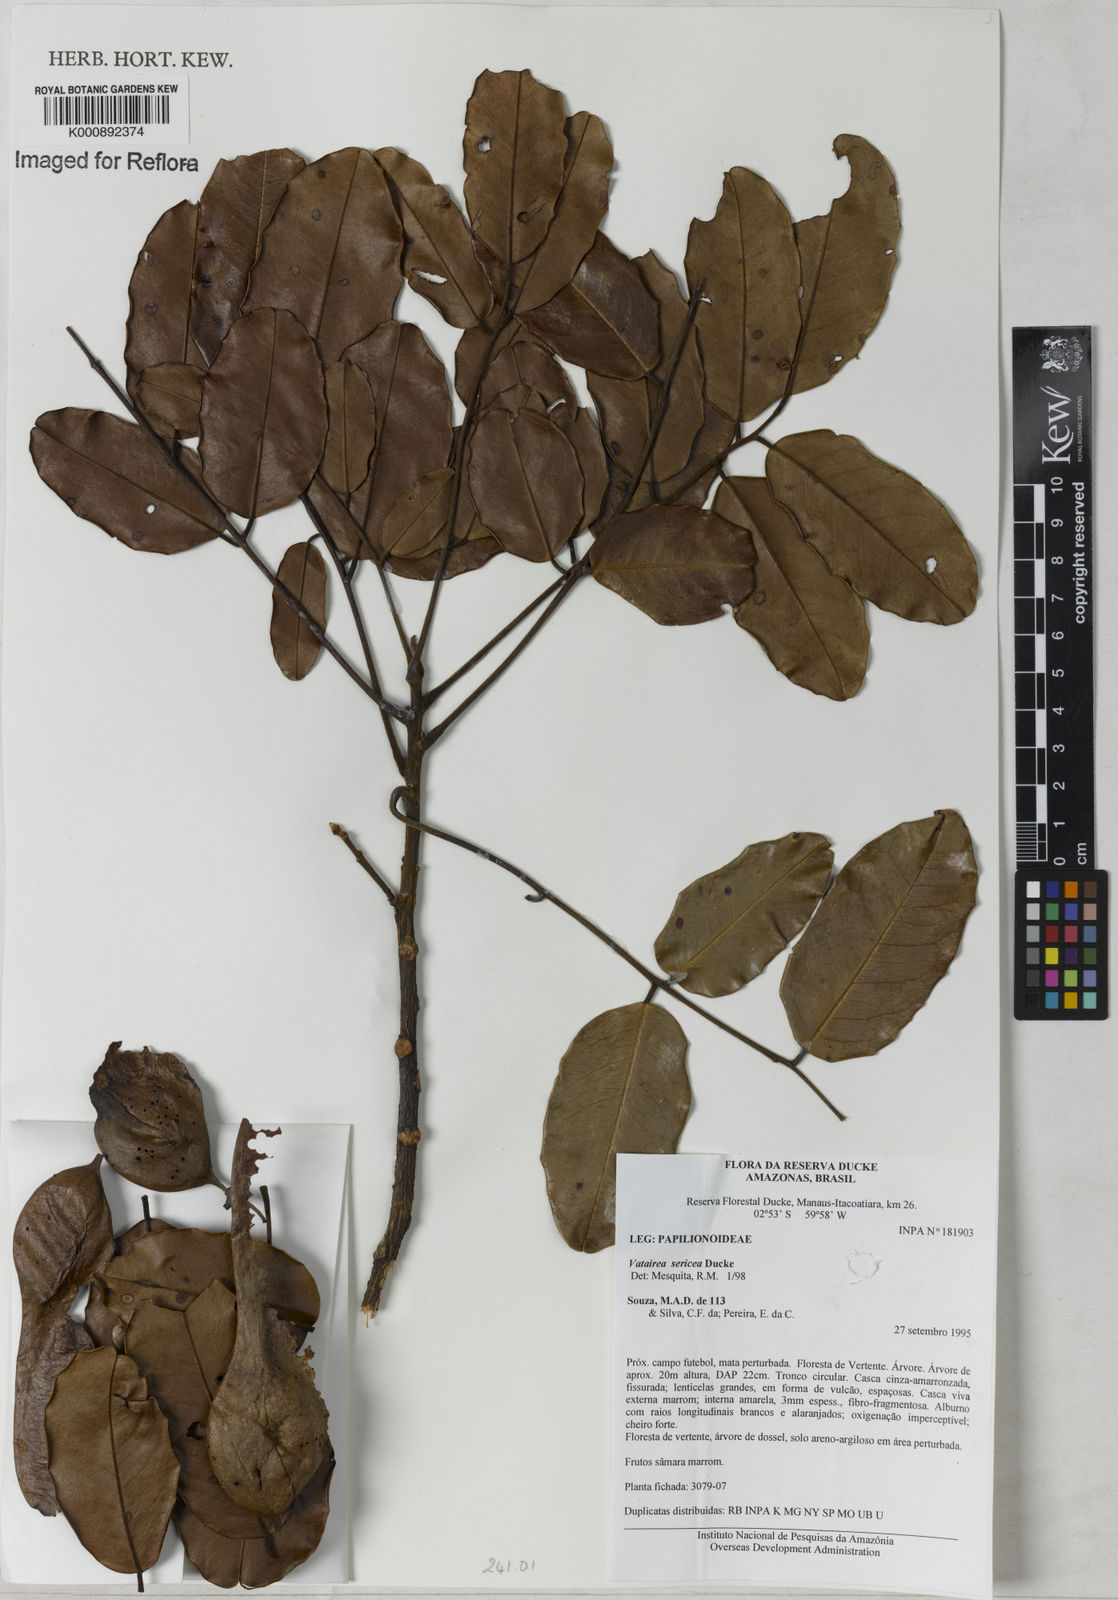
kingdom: Plantae
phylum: Tracheophyta
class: Magnoliopsida
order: Fabales
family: Fabaceae
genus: Vatairea
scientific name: Vatairea sericea
